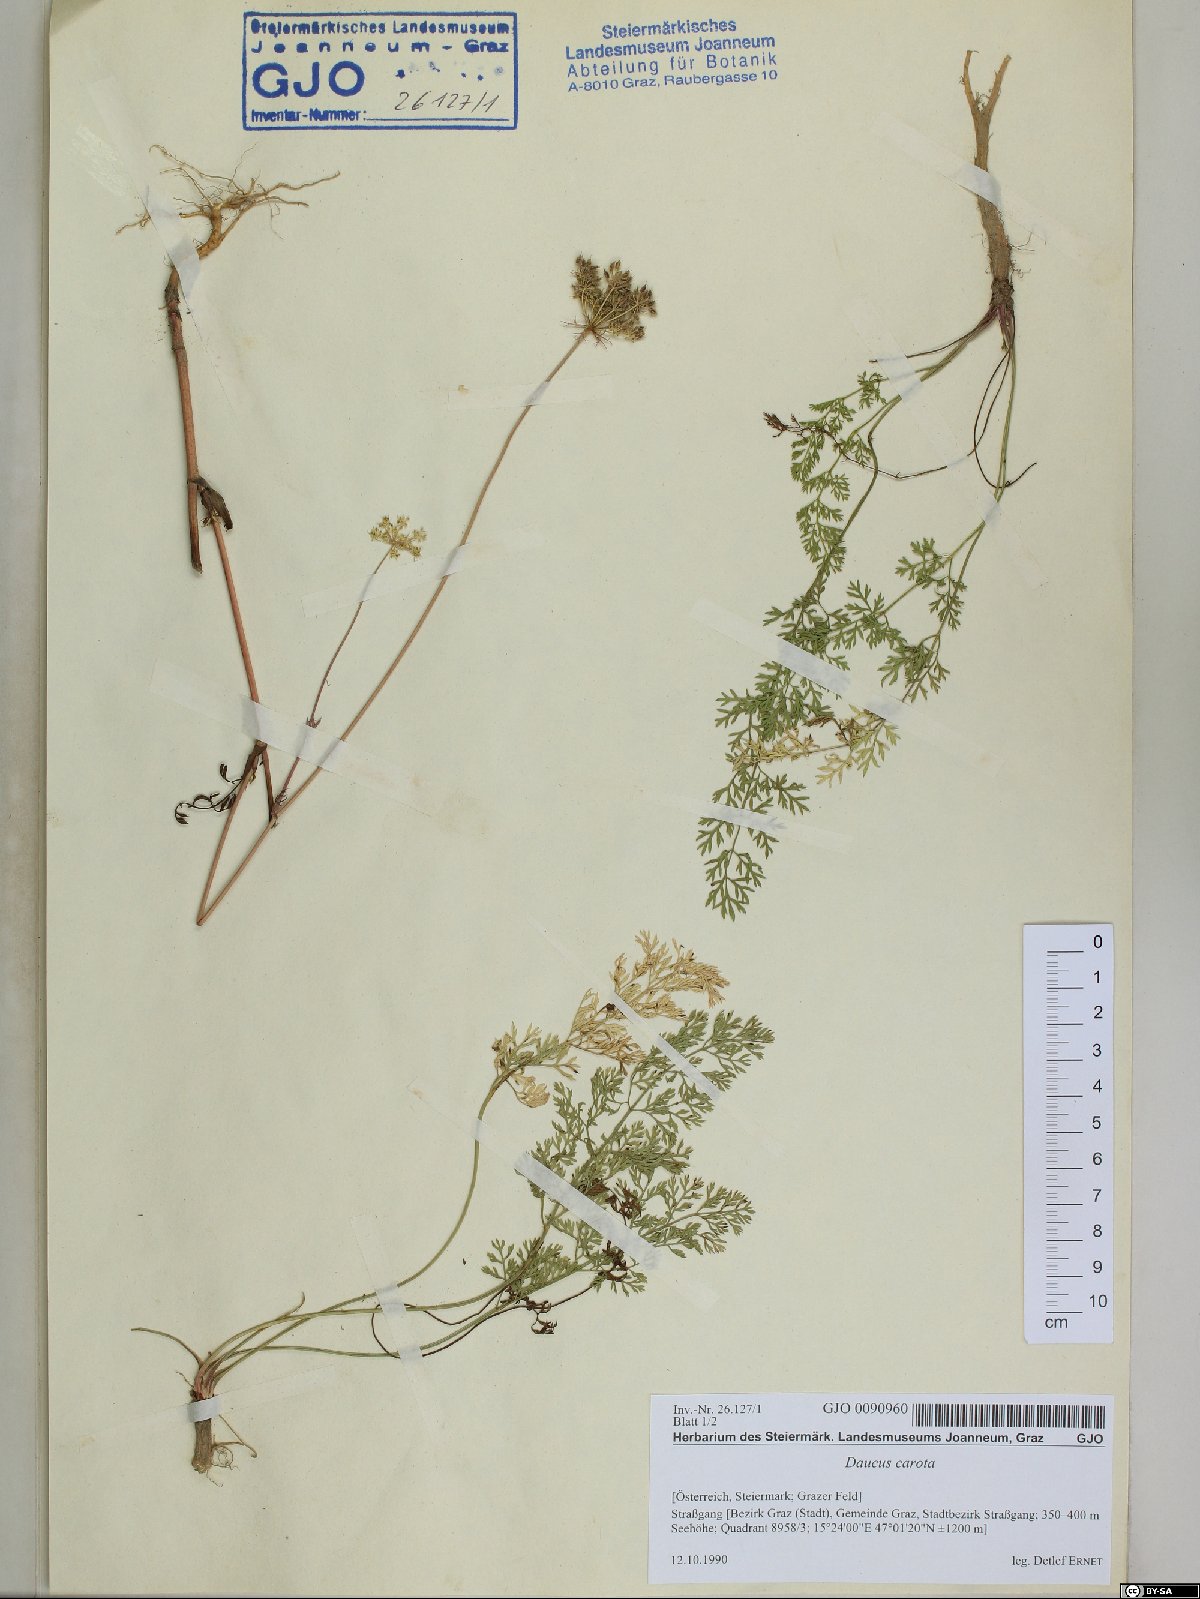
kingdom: Plantae
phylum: Tracheophyta
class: Magnoliopsida
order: Apiales
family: Apiaceae
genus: Daucus
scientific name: Daucus carota
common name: Wild carrot
